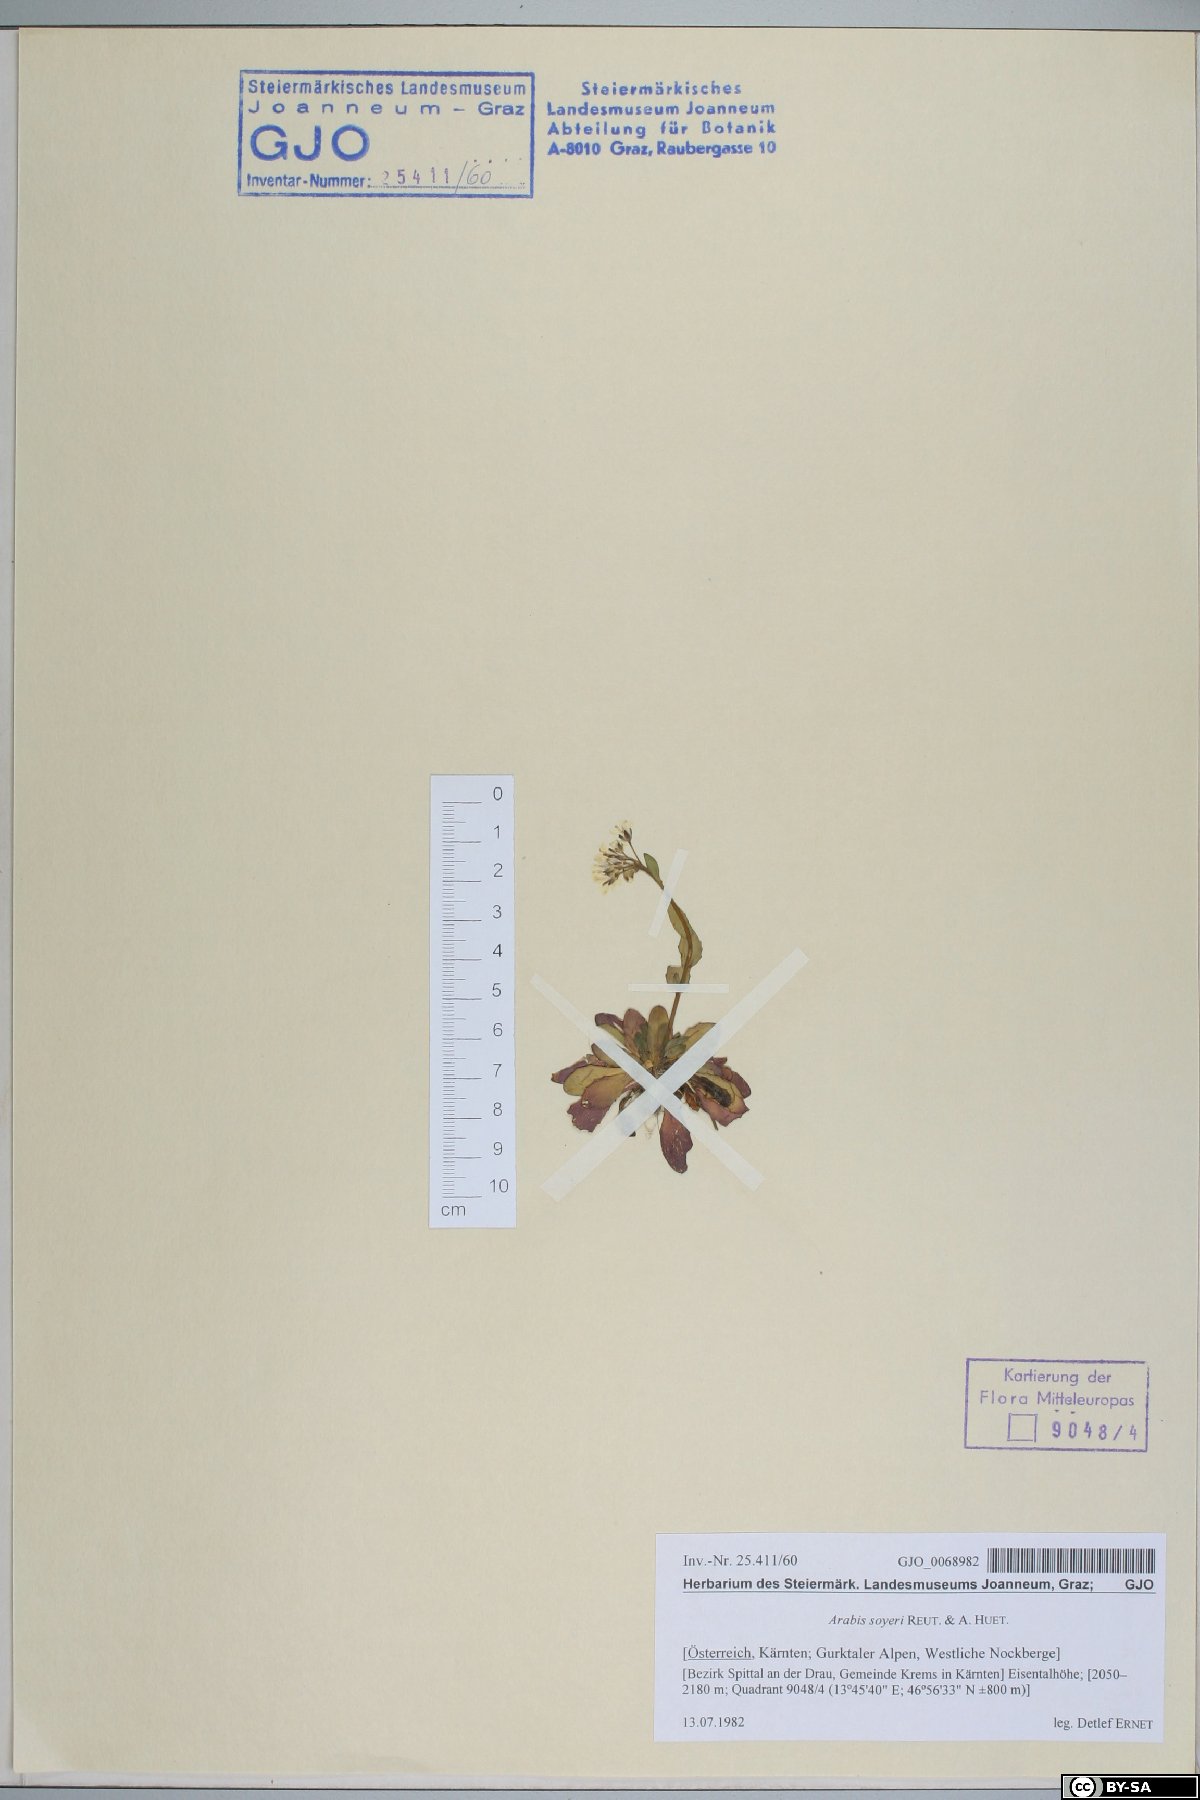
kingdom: Plantae
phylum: Tracheophyta
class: Magnoliopsida
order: Brassicales
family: Brassicaceae
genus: Arabis
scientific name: Arabis soyeri
